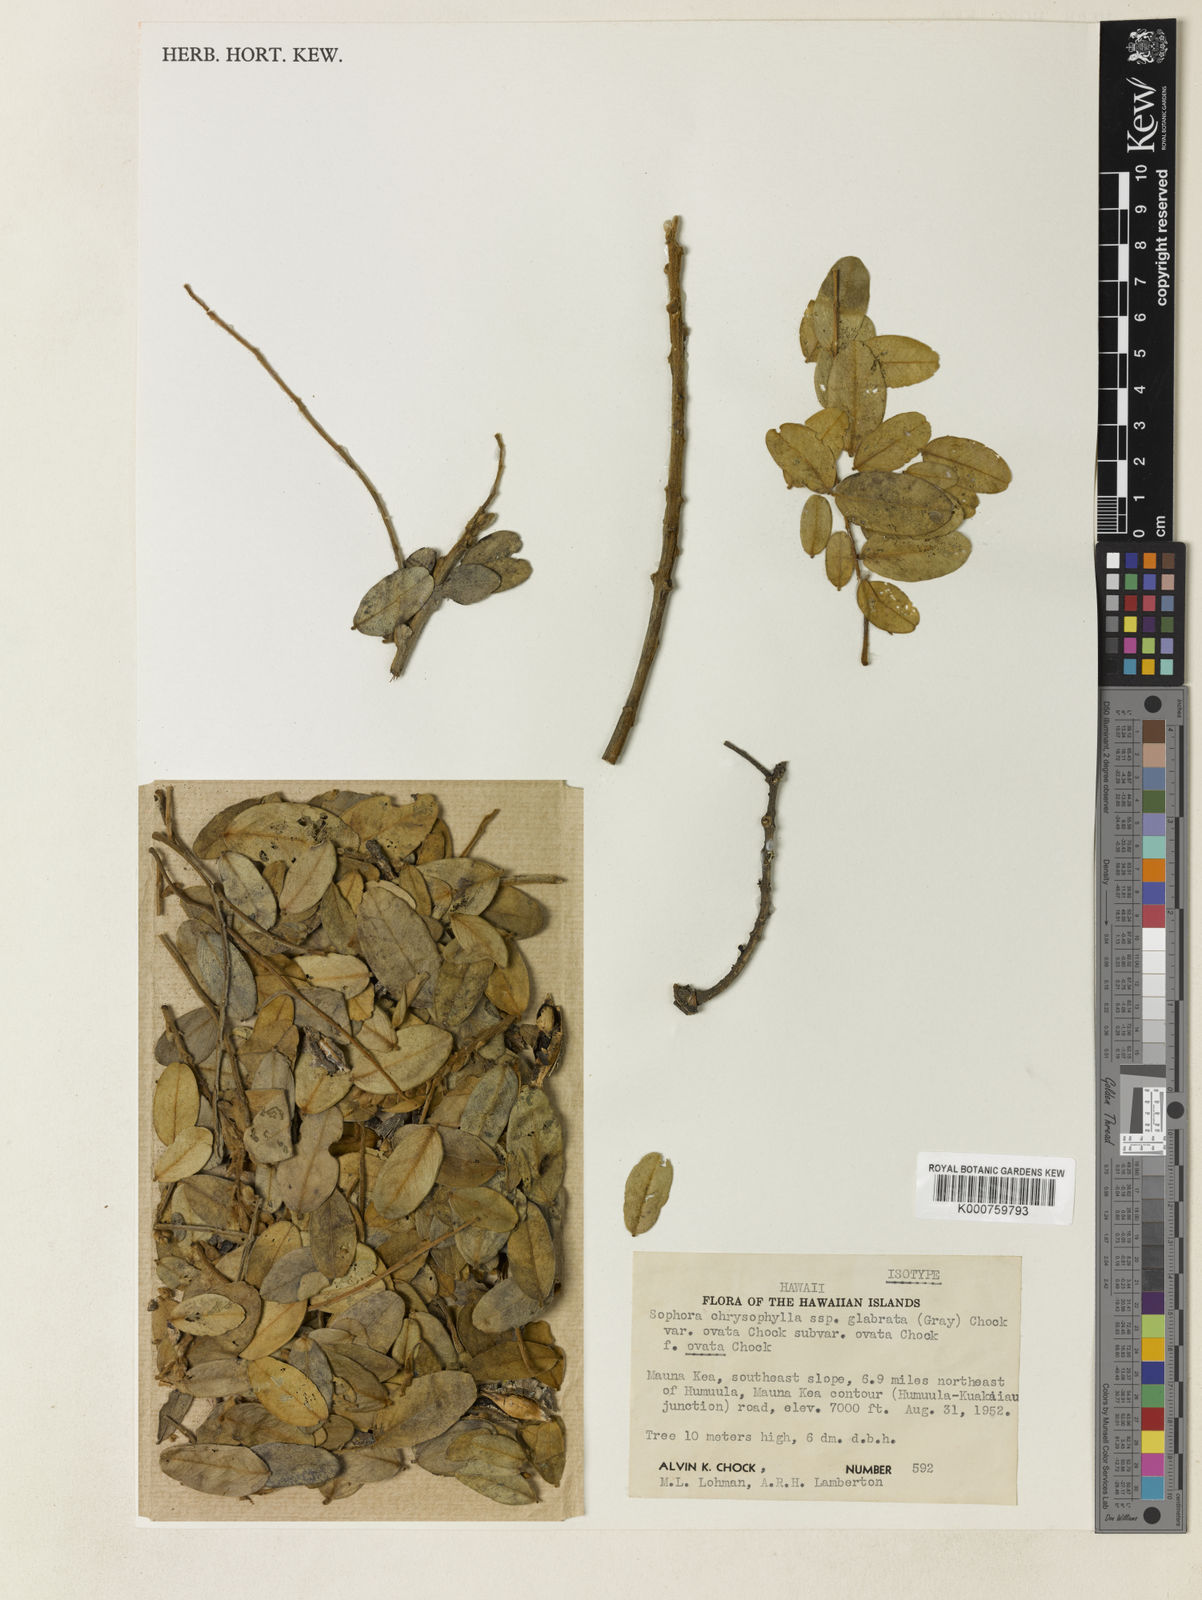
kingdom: Plantae
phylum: Tracheophyta
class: Magnoliopsida
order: Fabales
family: Fabaceae
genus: Sophora
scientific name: Sophora chrysophylla
